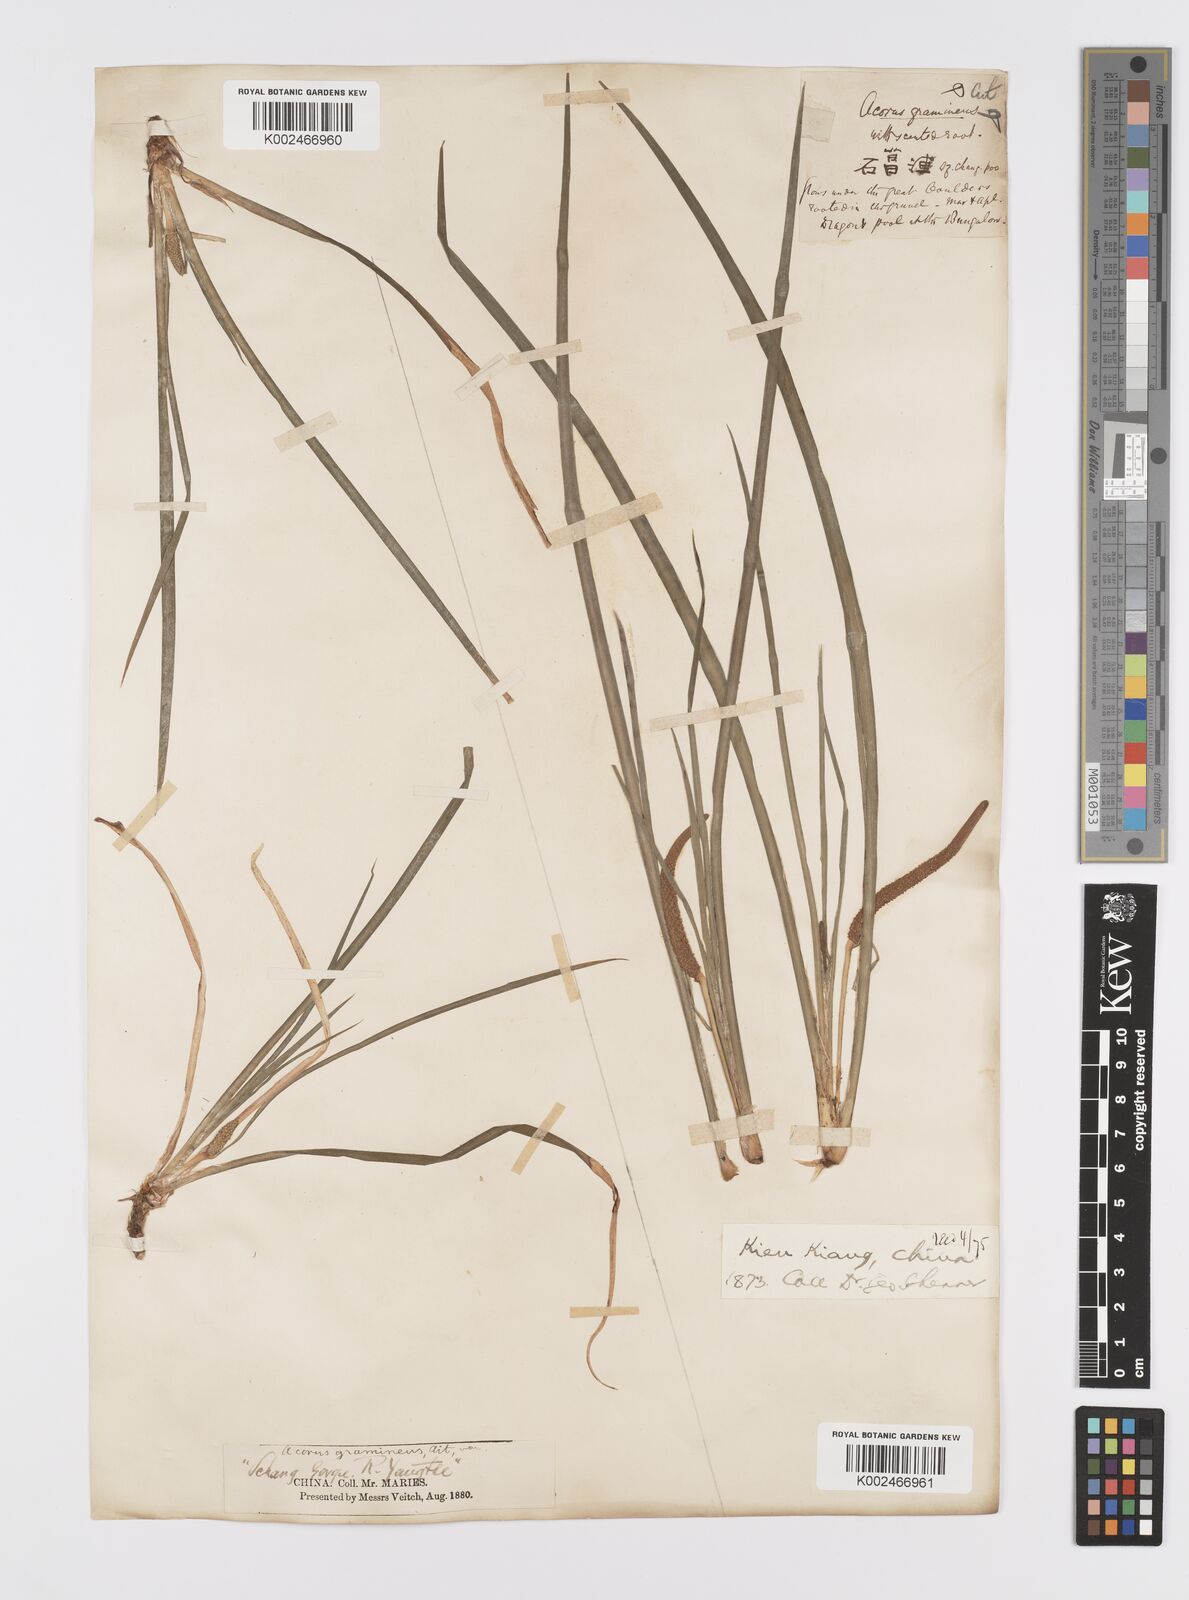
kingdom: Plantae
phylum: Tracheophyta
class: Liliopsida
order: Acorales
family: Acoraceae
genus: Acorus
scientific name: Acorus gramineus
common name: Slender sweet-flag
